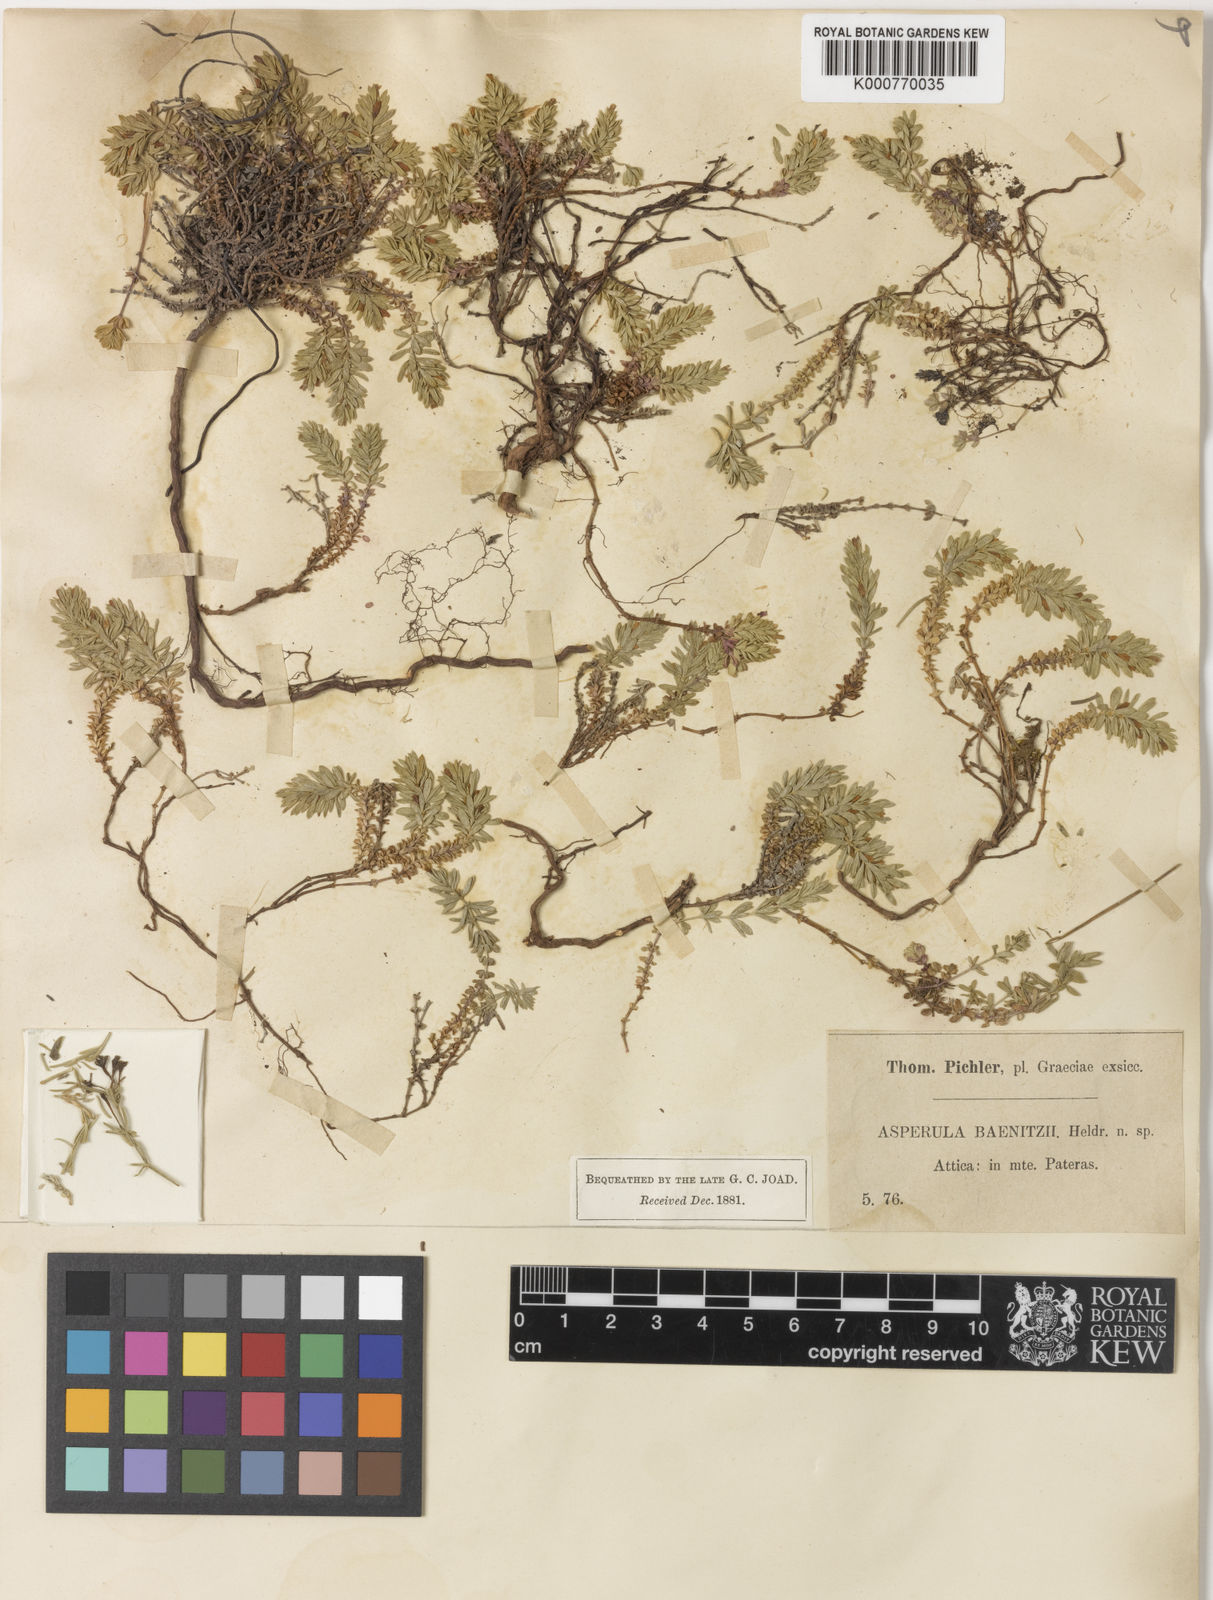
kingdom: Plantae
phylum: Tracheophyta
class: Magnoliopsida
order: Gentianales
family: Rubiaceae
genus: Thliphthisa
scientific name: Thliphthisa baenitzii
